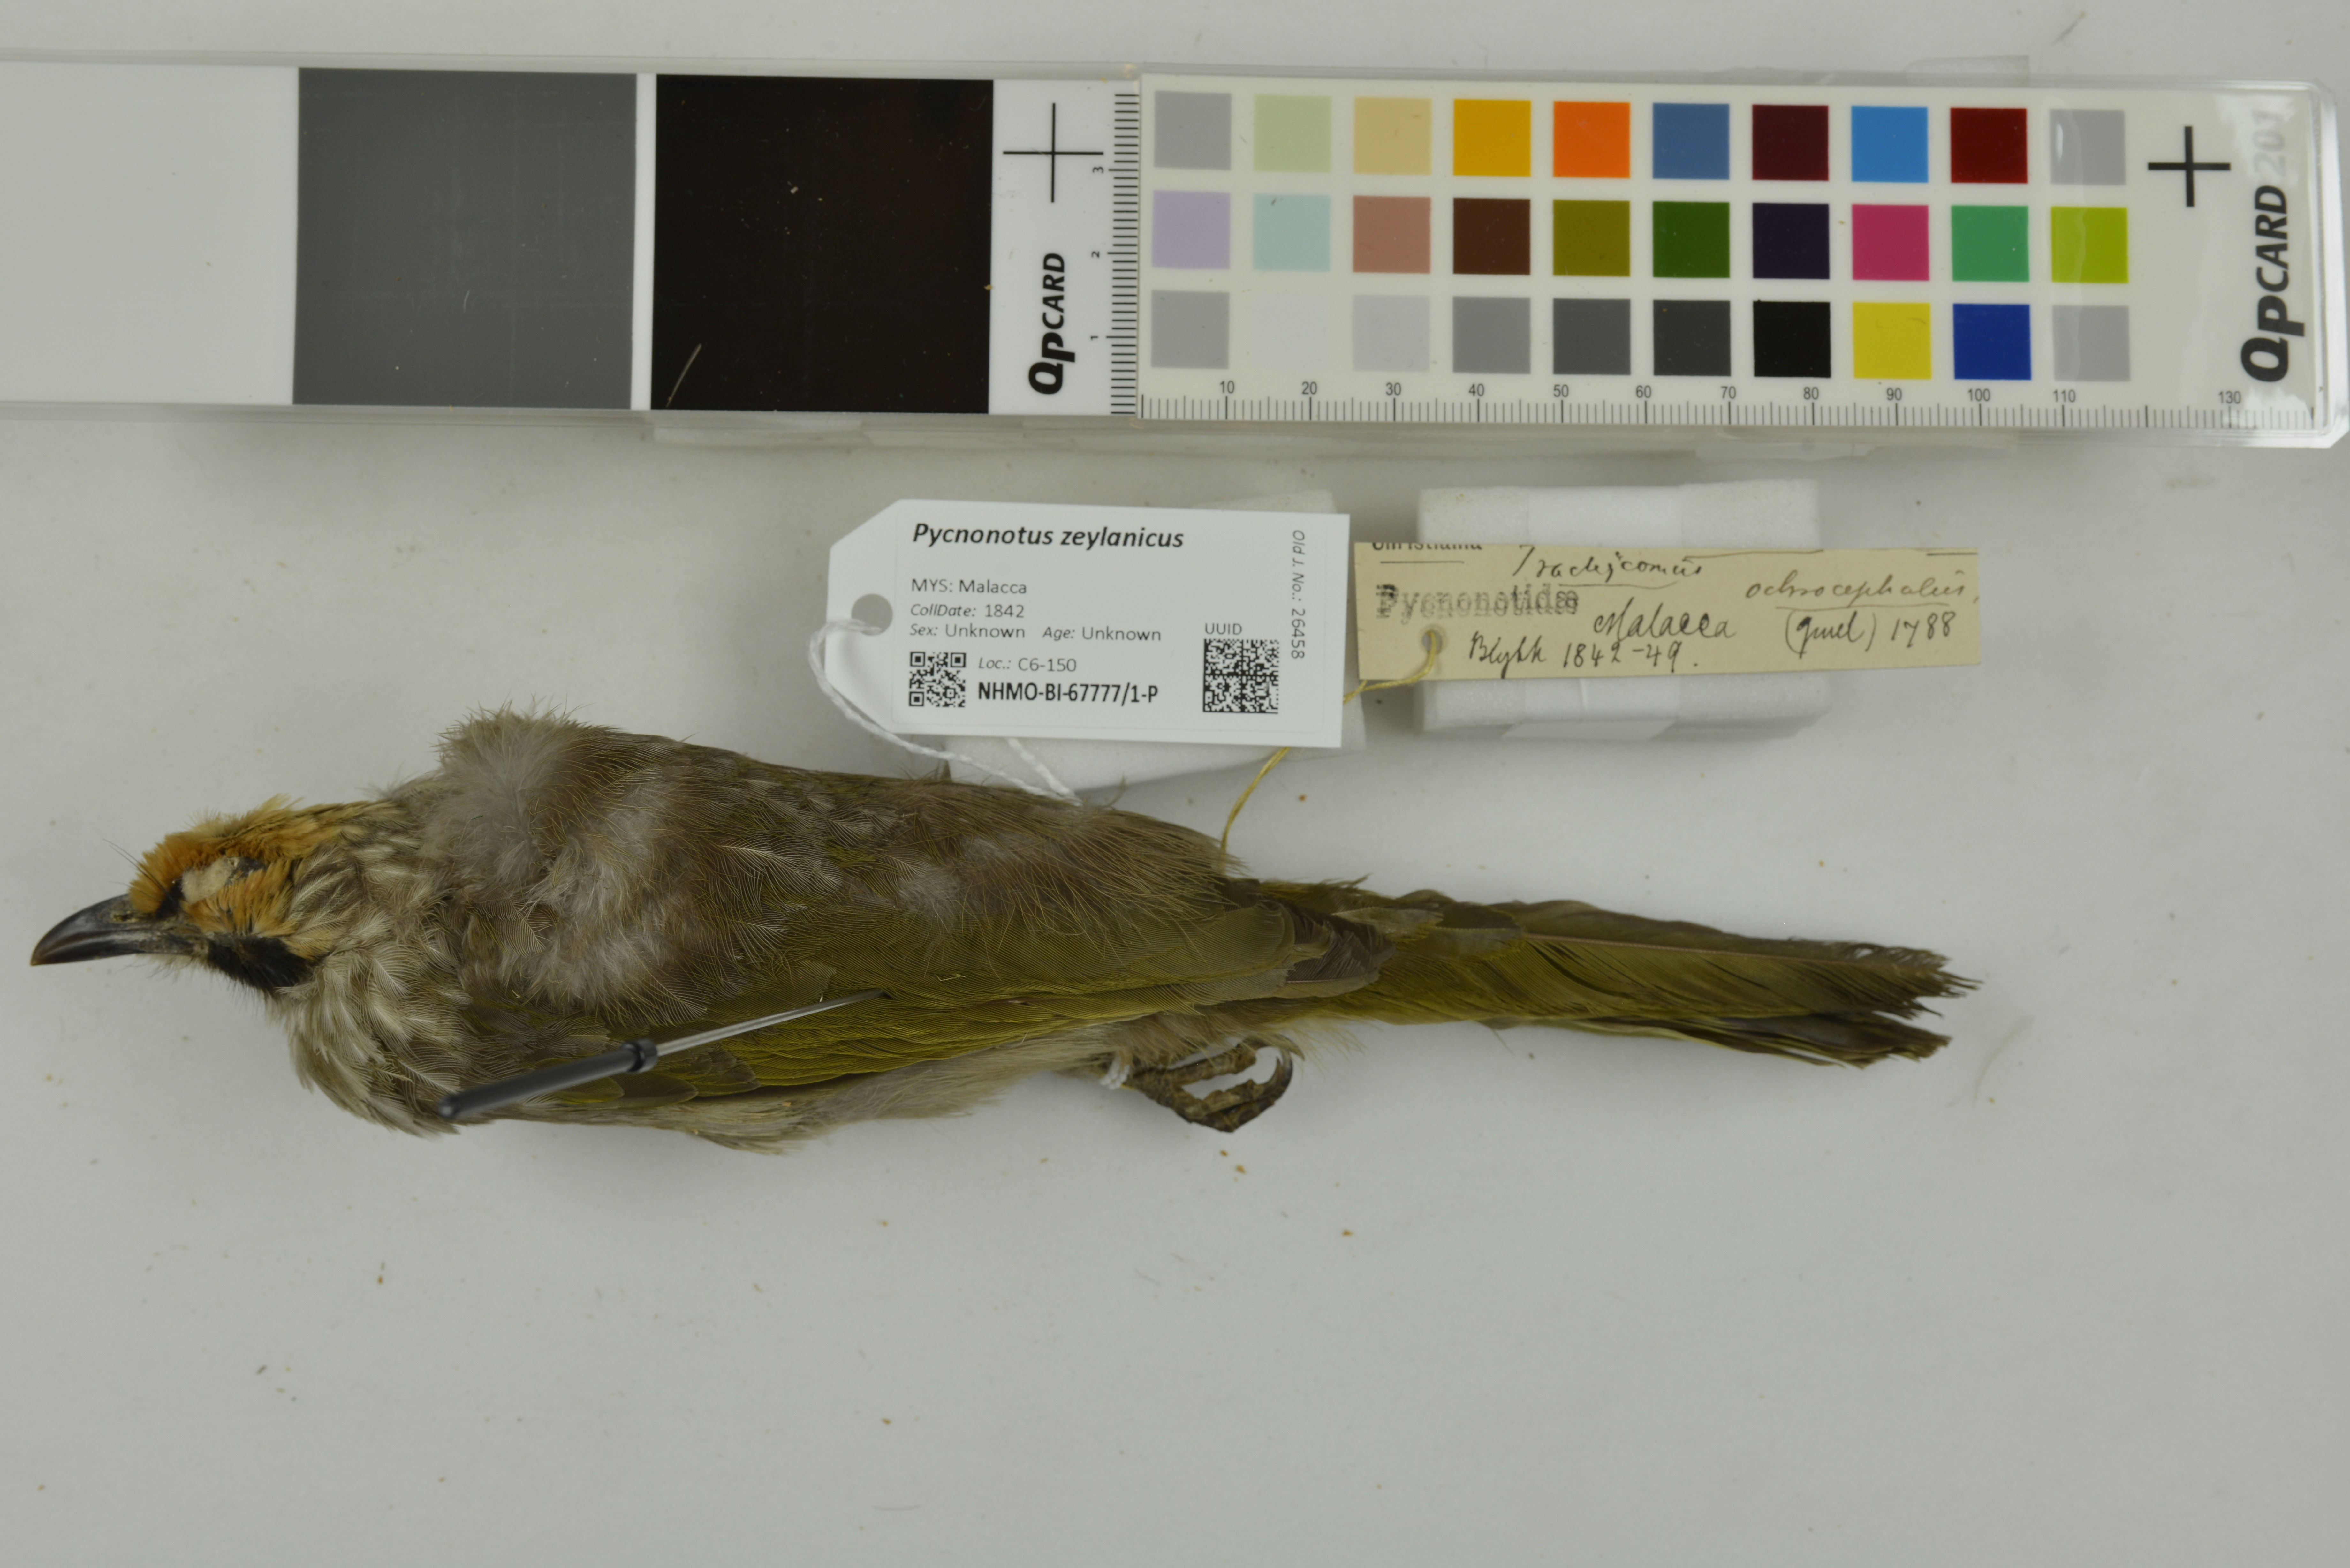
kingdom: Animalia
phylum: Chordata
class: Aves
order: Passeriformes
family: Pycnonotidae
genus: Pycnonotus
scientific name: Pycnonotus zeylanicus
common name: Straw-headed bulbul
